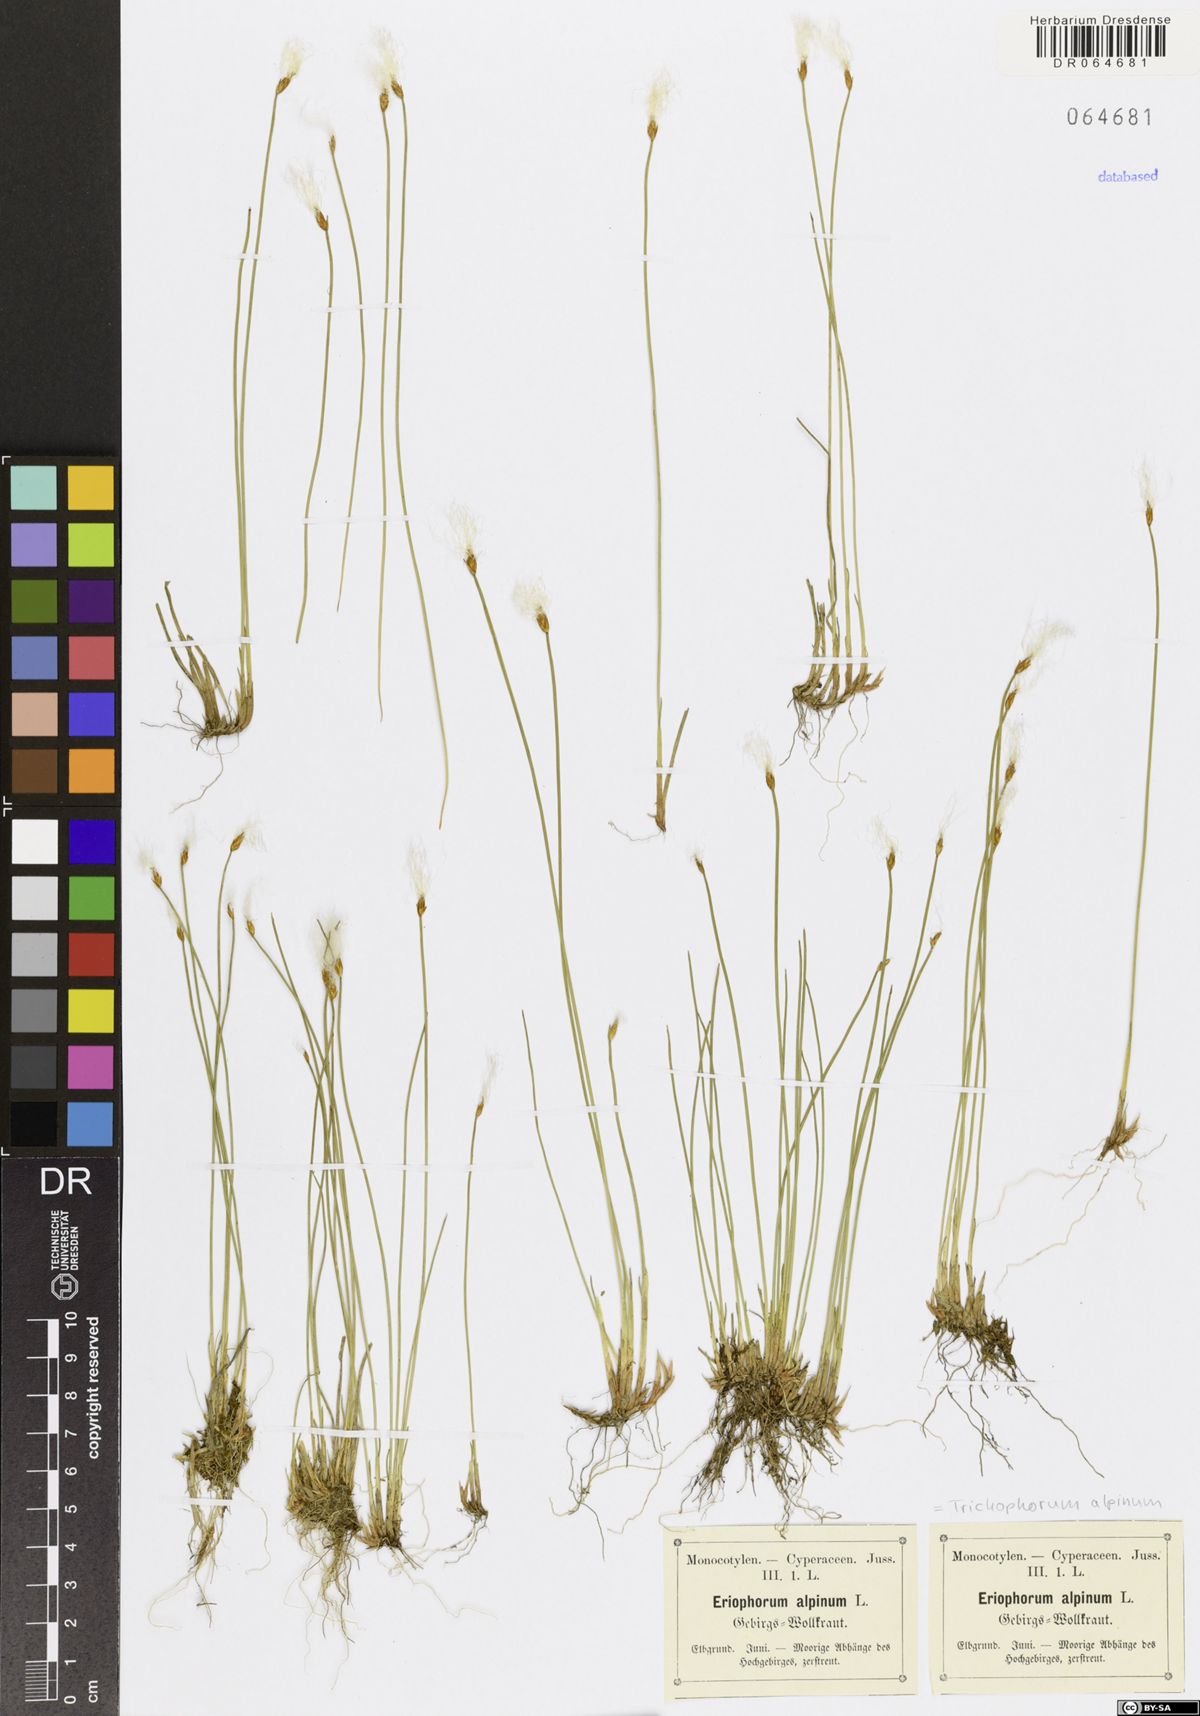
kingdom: Plantae
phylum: Tracheophyta
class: Liliopsida
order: Poales
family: Cyperaceae
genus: Trichophorum
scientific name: Trichophorum alpinum
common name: Alpine bulrush
